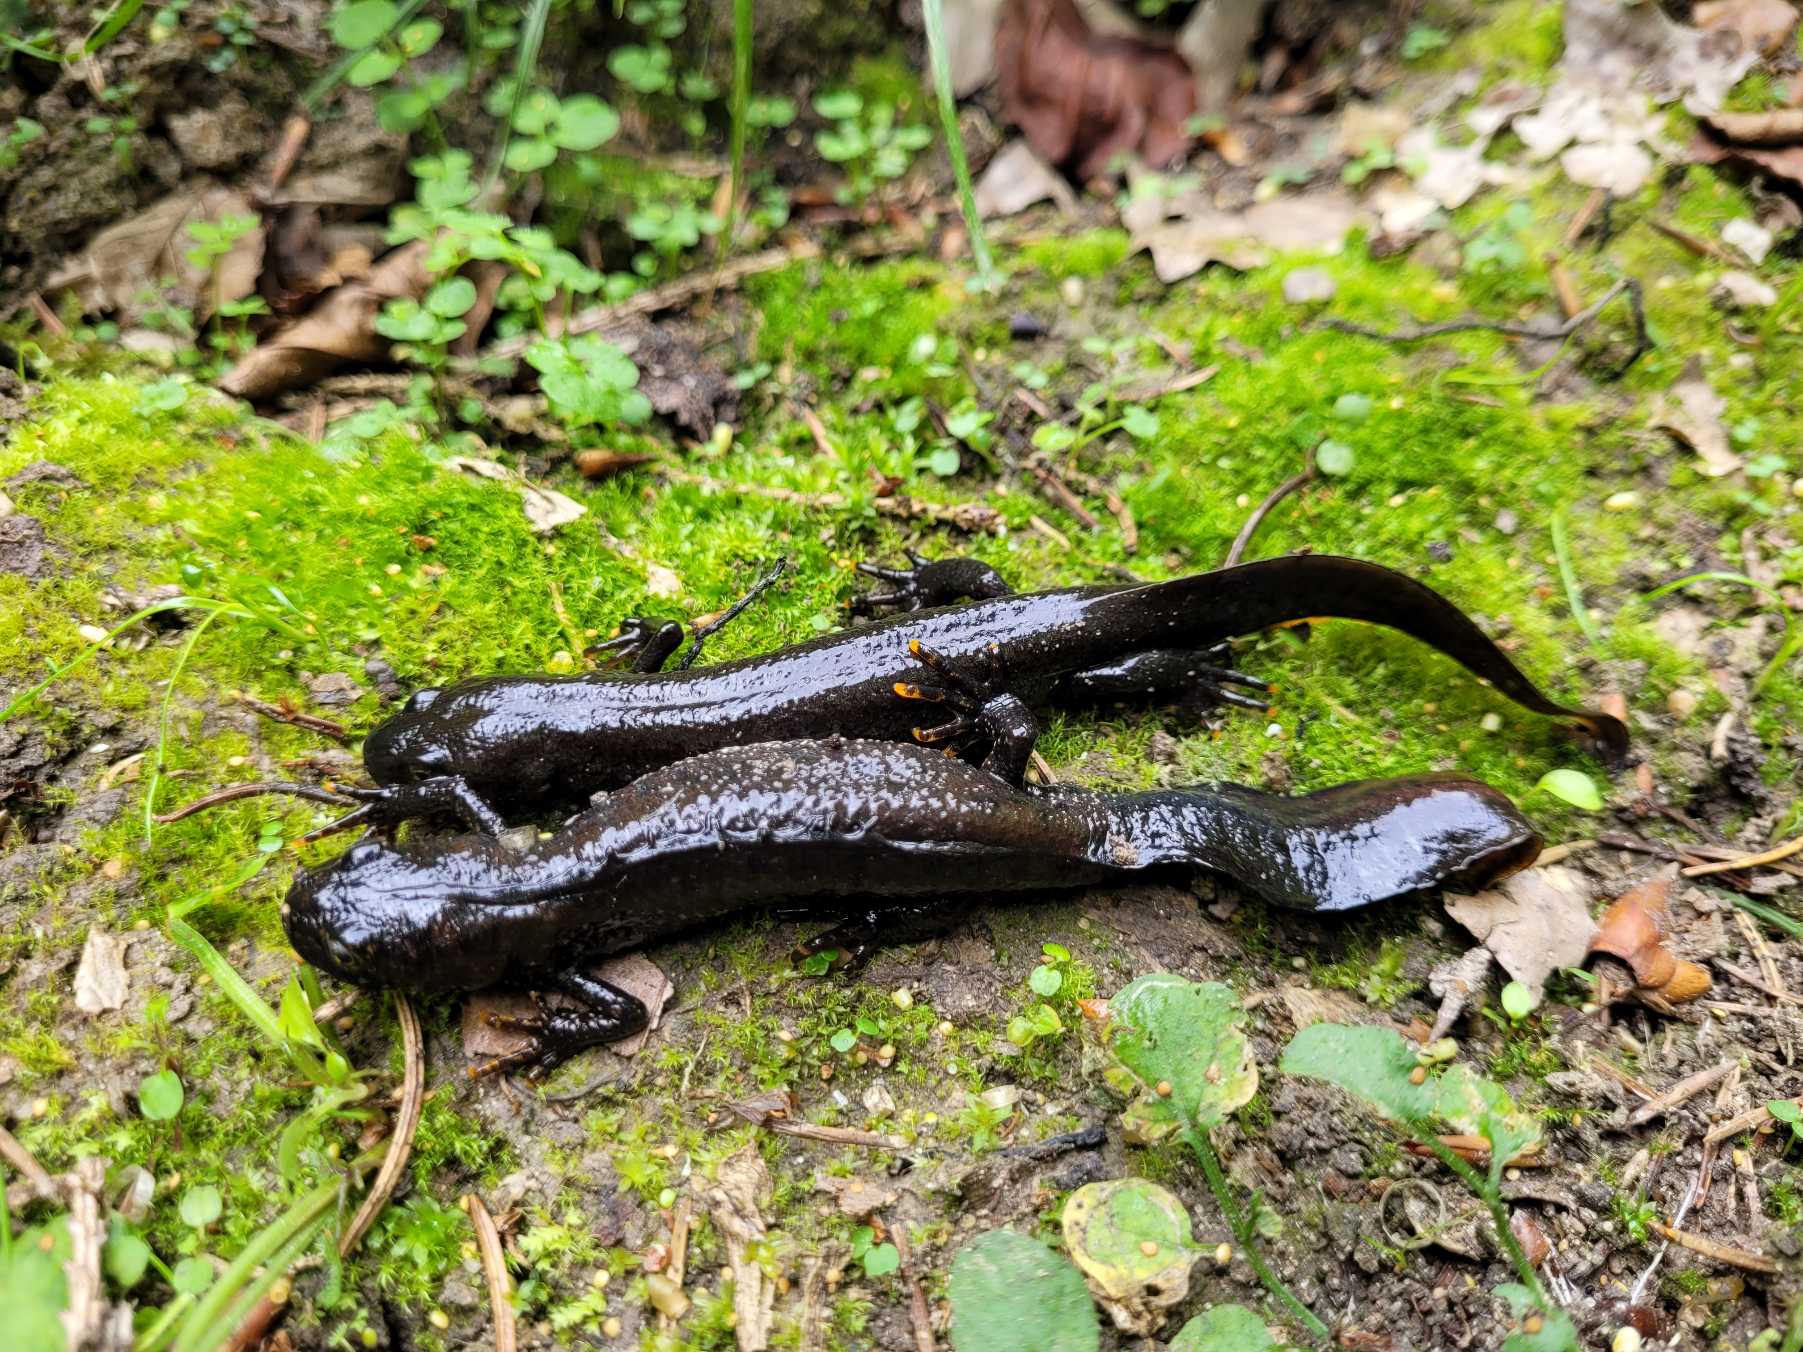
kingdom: Animalia
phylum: Chordata
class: Amphibia
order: Caudata
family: Salamandridae
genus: Triturus
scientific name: Triturus cristatus
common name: Stor vandsalamander
